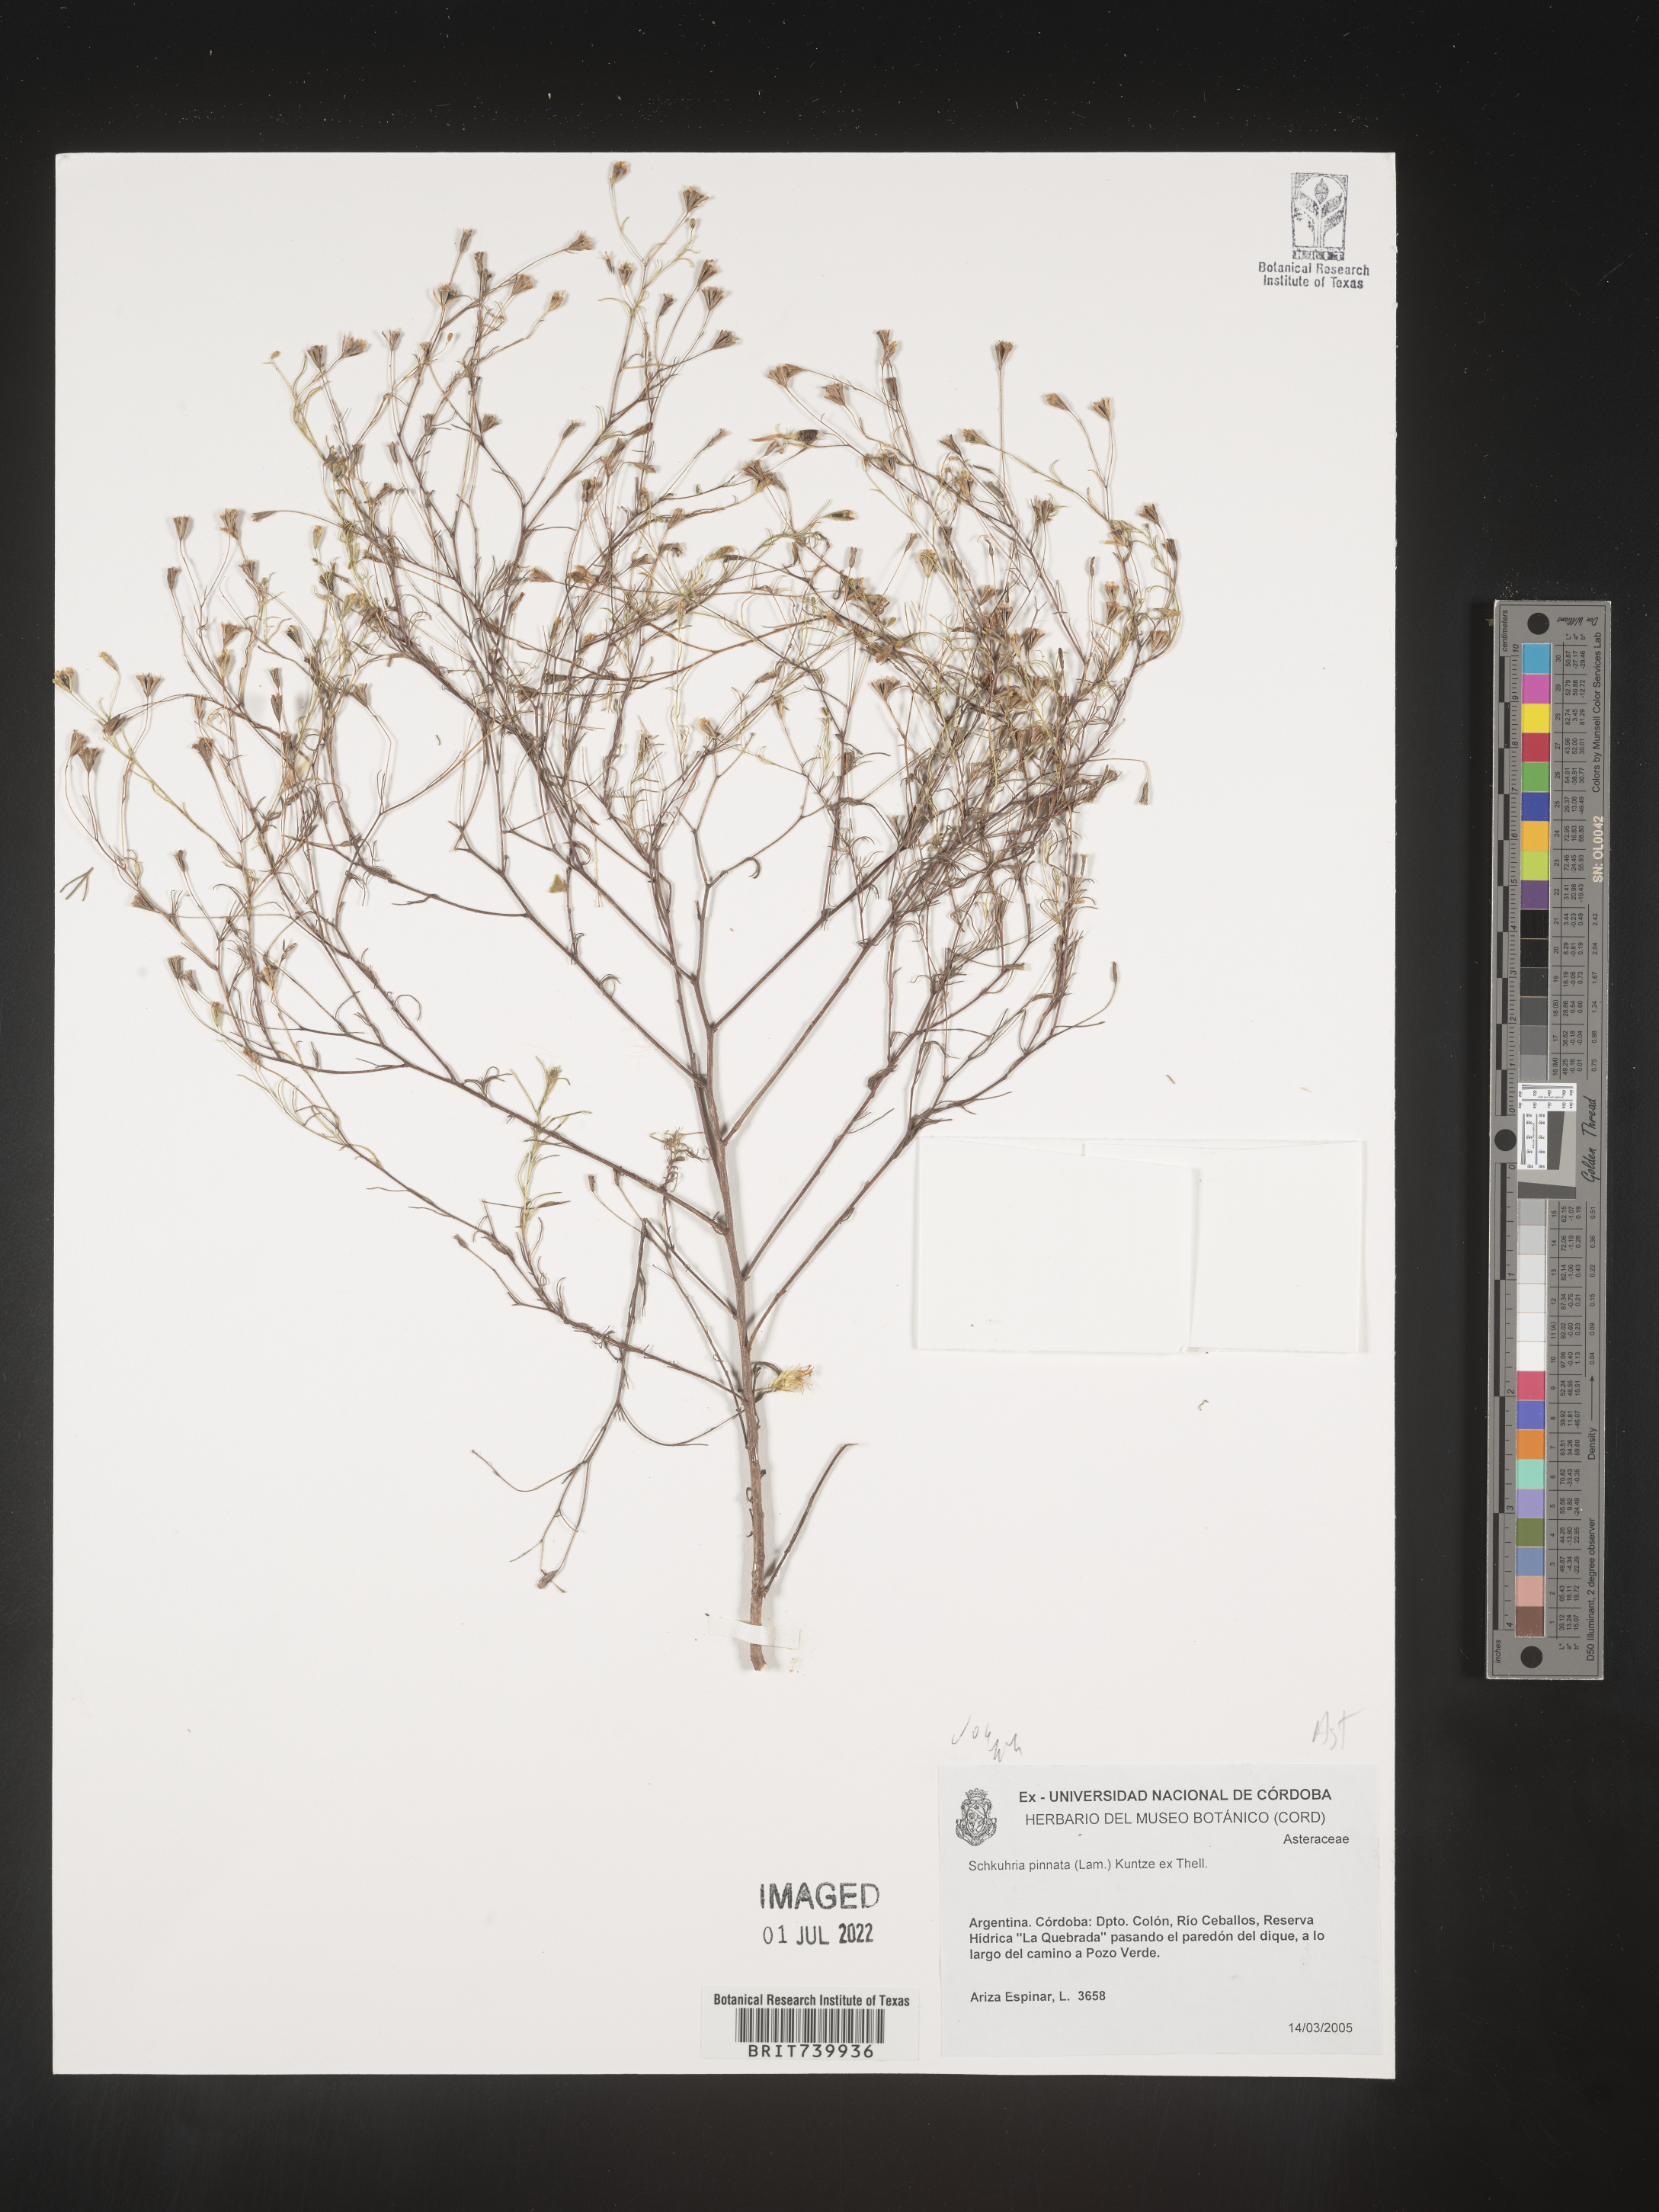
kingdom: Plantae
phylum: Tracheophyta
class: Magnoliopsida
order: Asterales
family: Asteraceae
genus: Schkuhria
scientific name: Schkuhria
